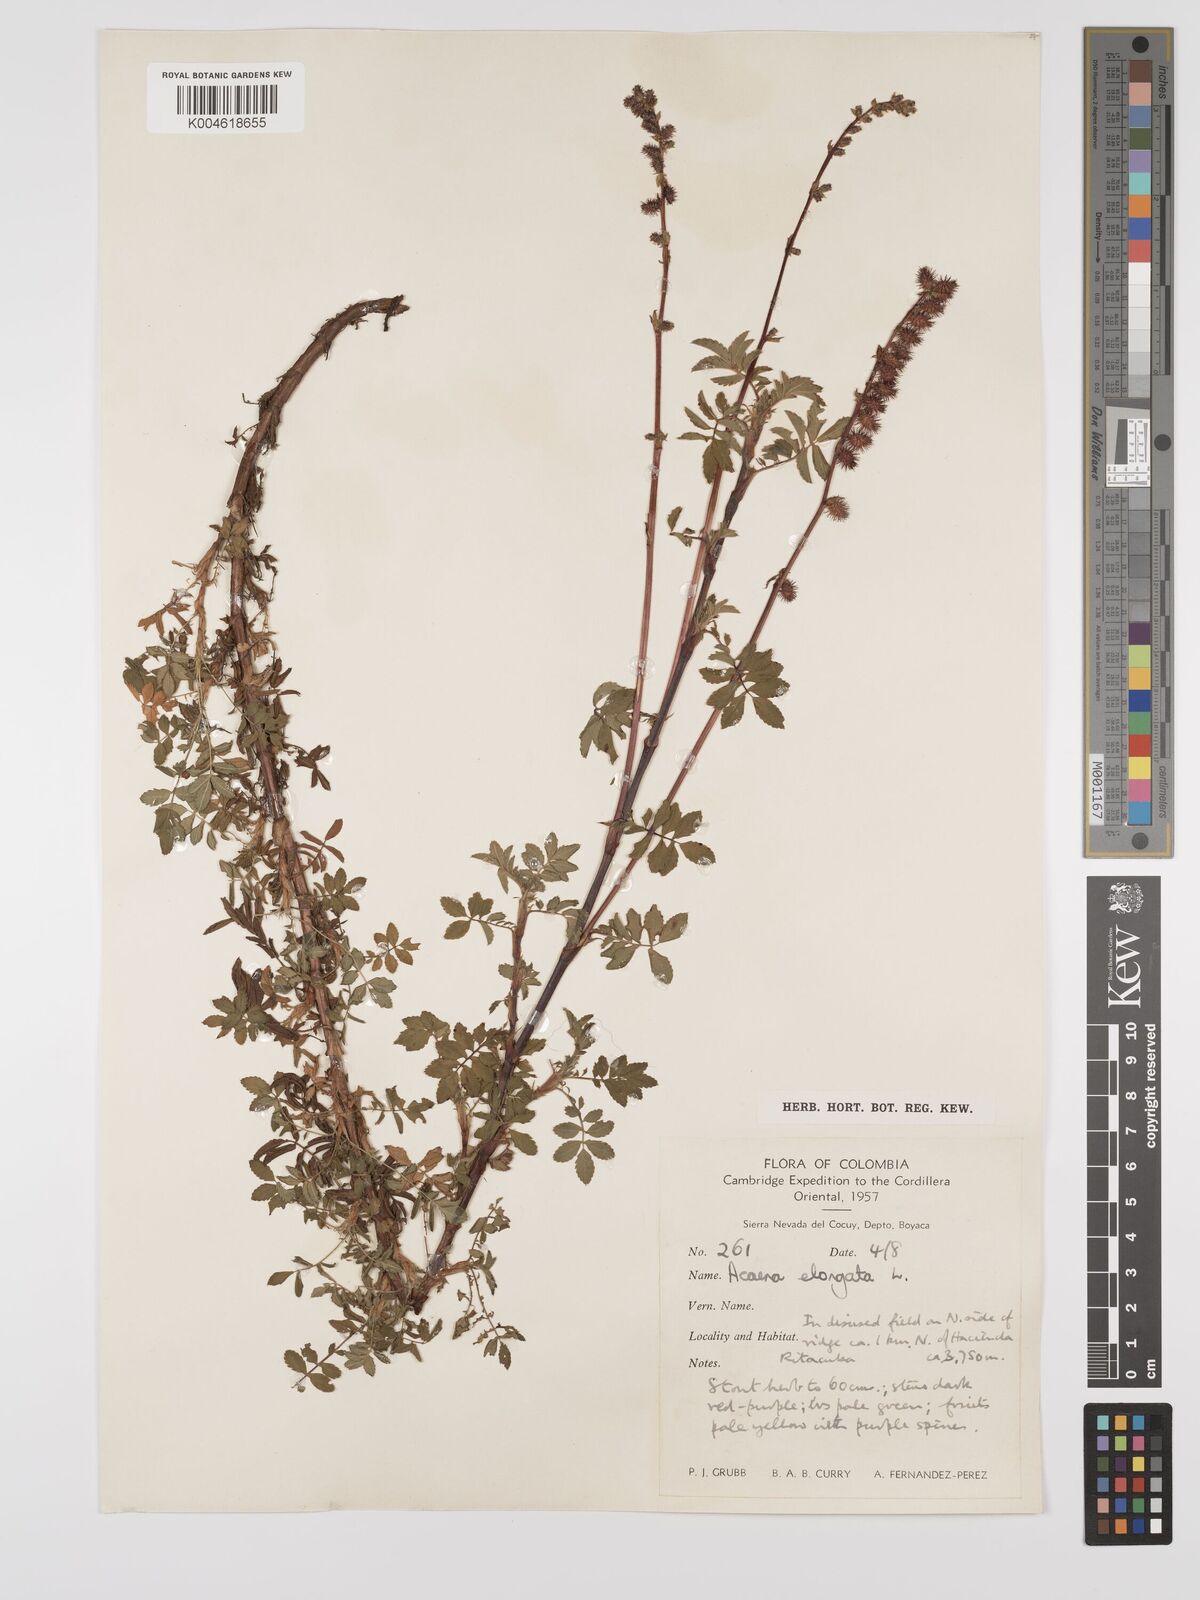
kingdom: Plantae
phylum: Tracheophyta
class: Magnoliopsida
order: Rosales
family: Rosaceae
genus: Acaena
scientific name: Acaena elongata
